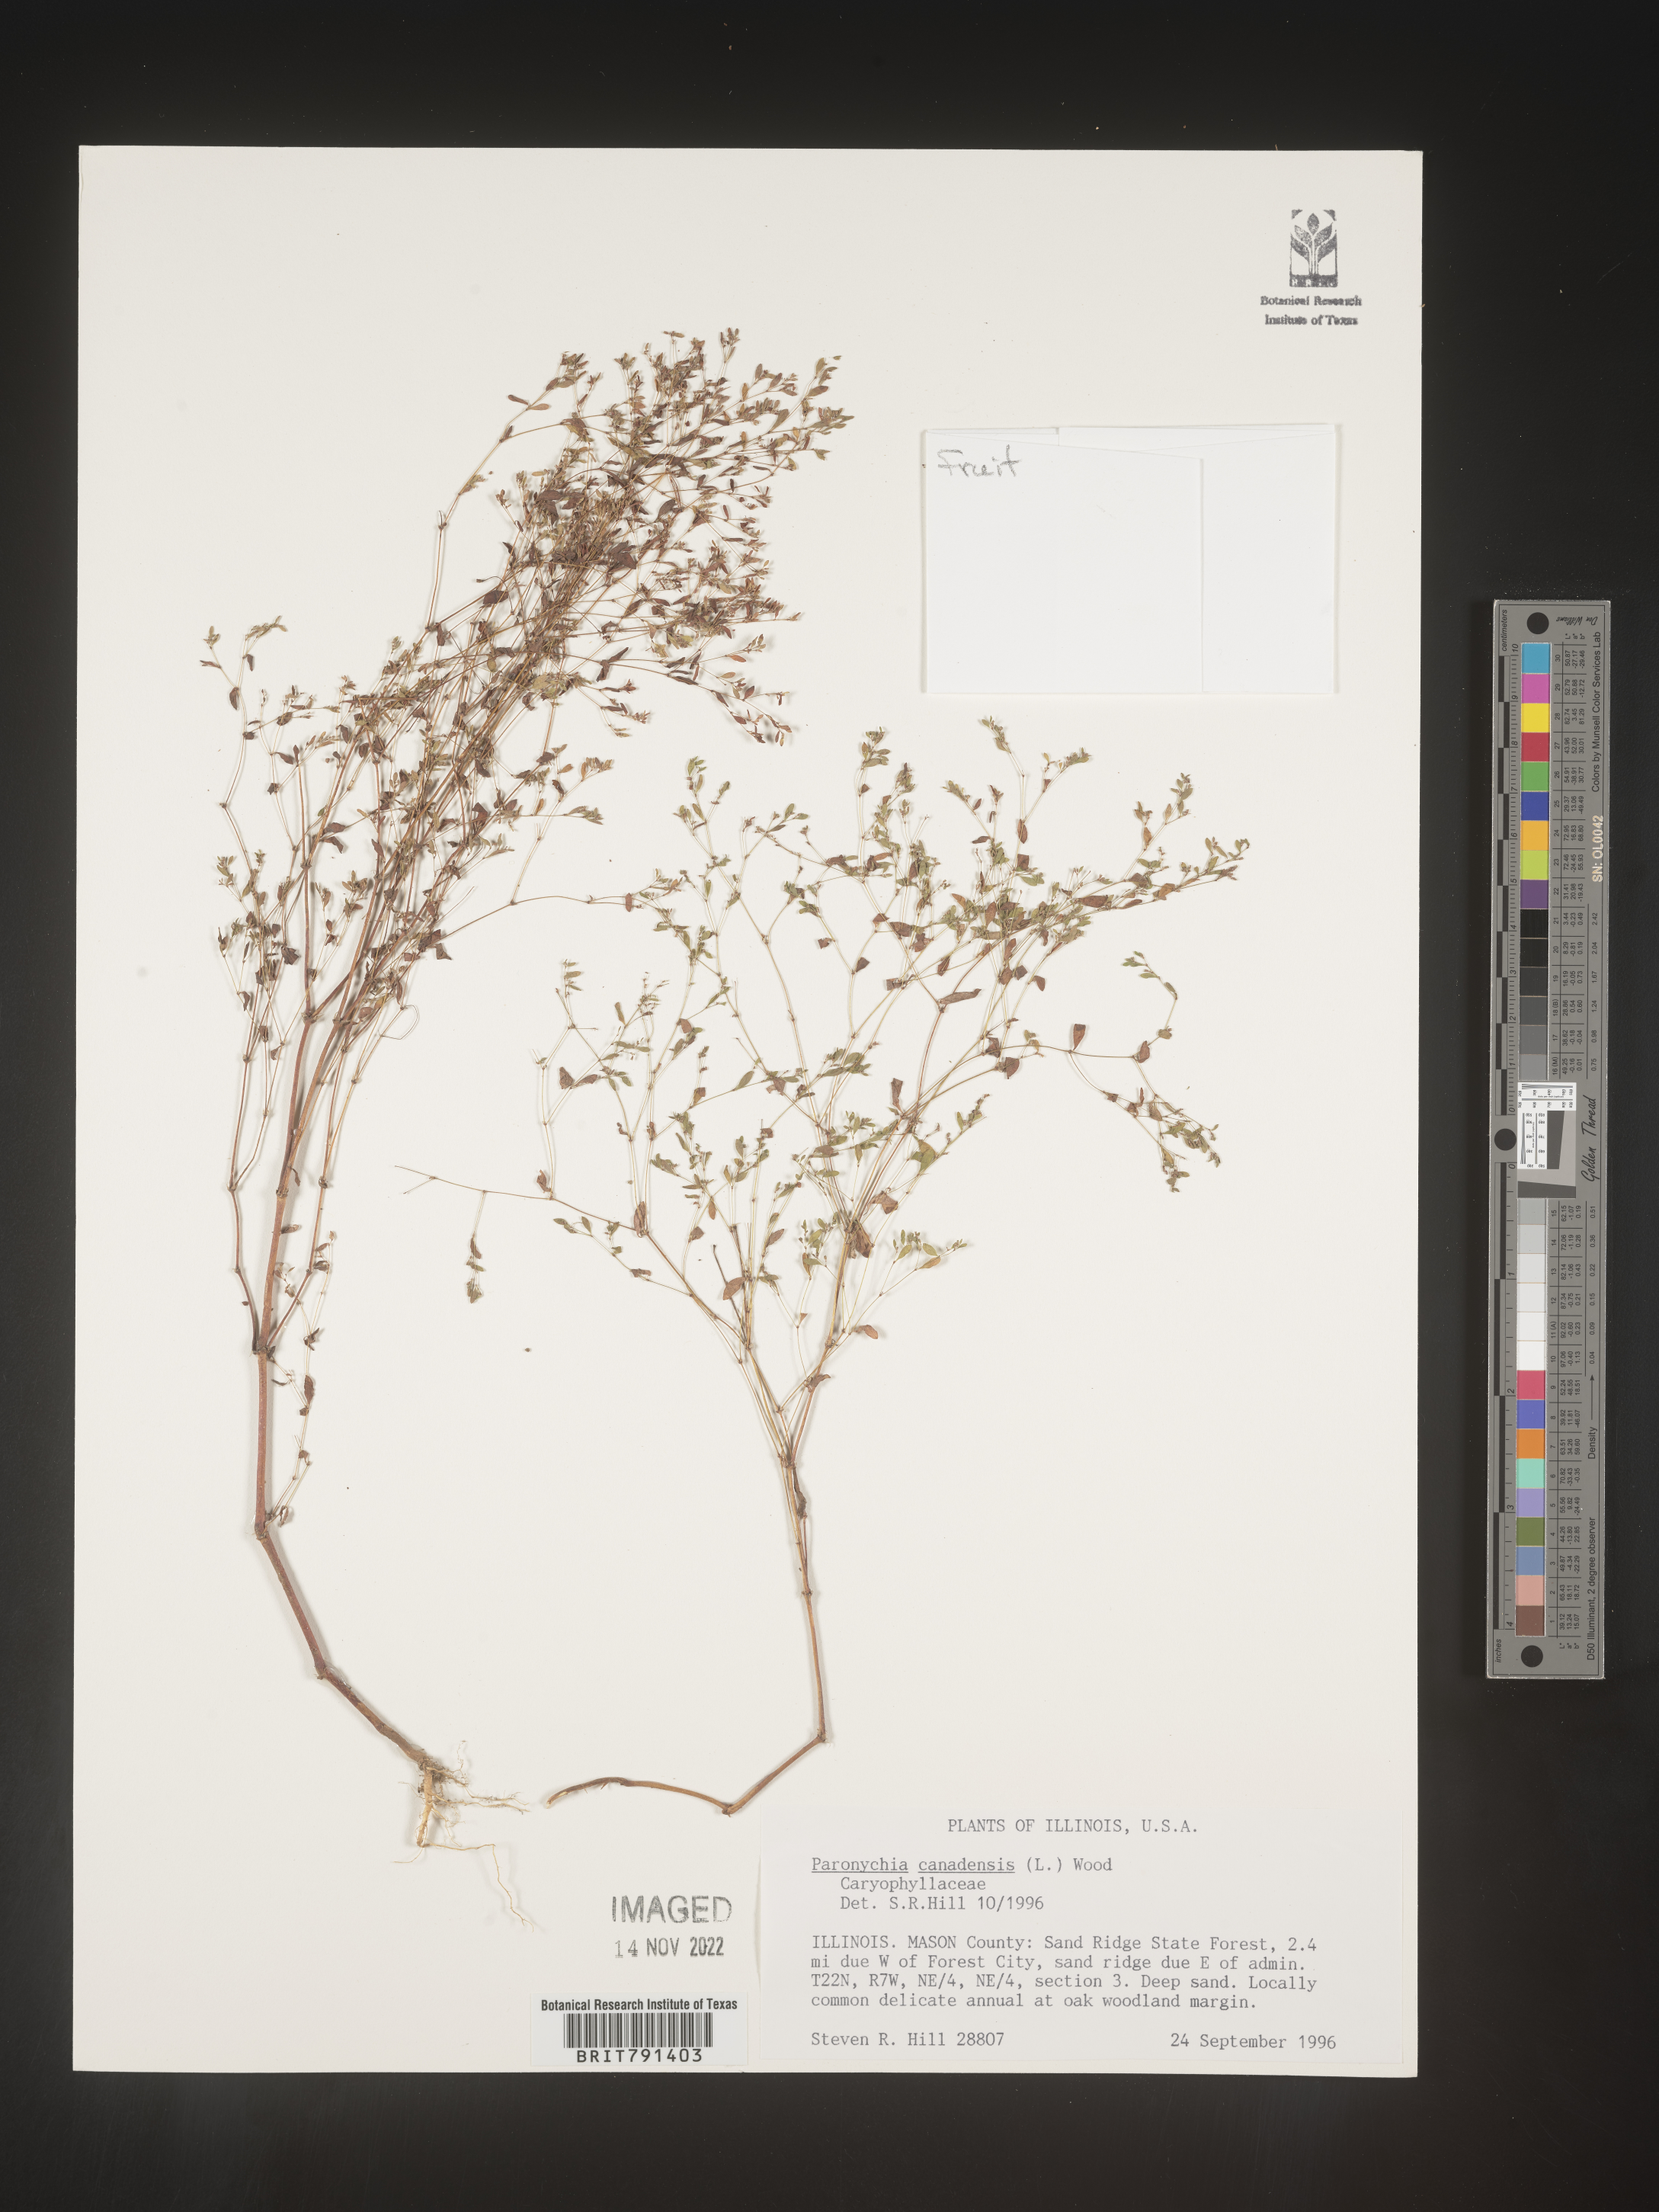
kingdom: Plantae
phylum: Tracheophyta
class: Magnoliopsida
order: Caryophyllales
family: Caryophyllaceae
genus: Paronychia
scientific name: Paronychia canadensis
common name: Canada forked nailwort
